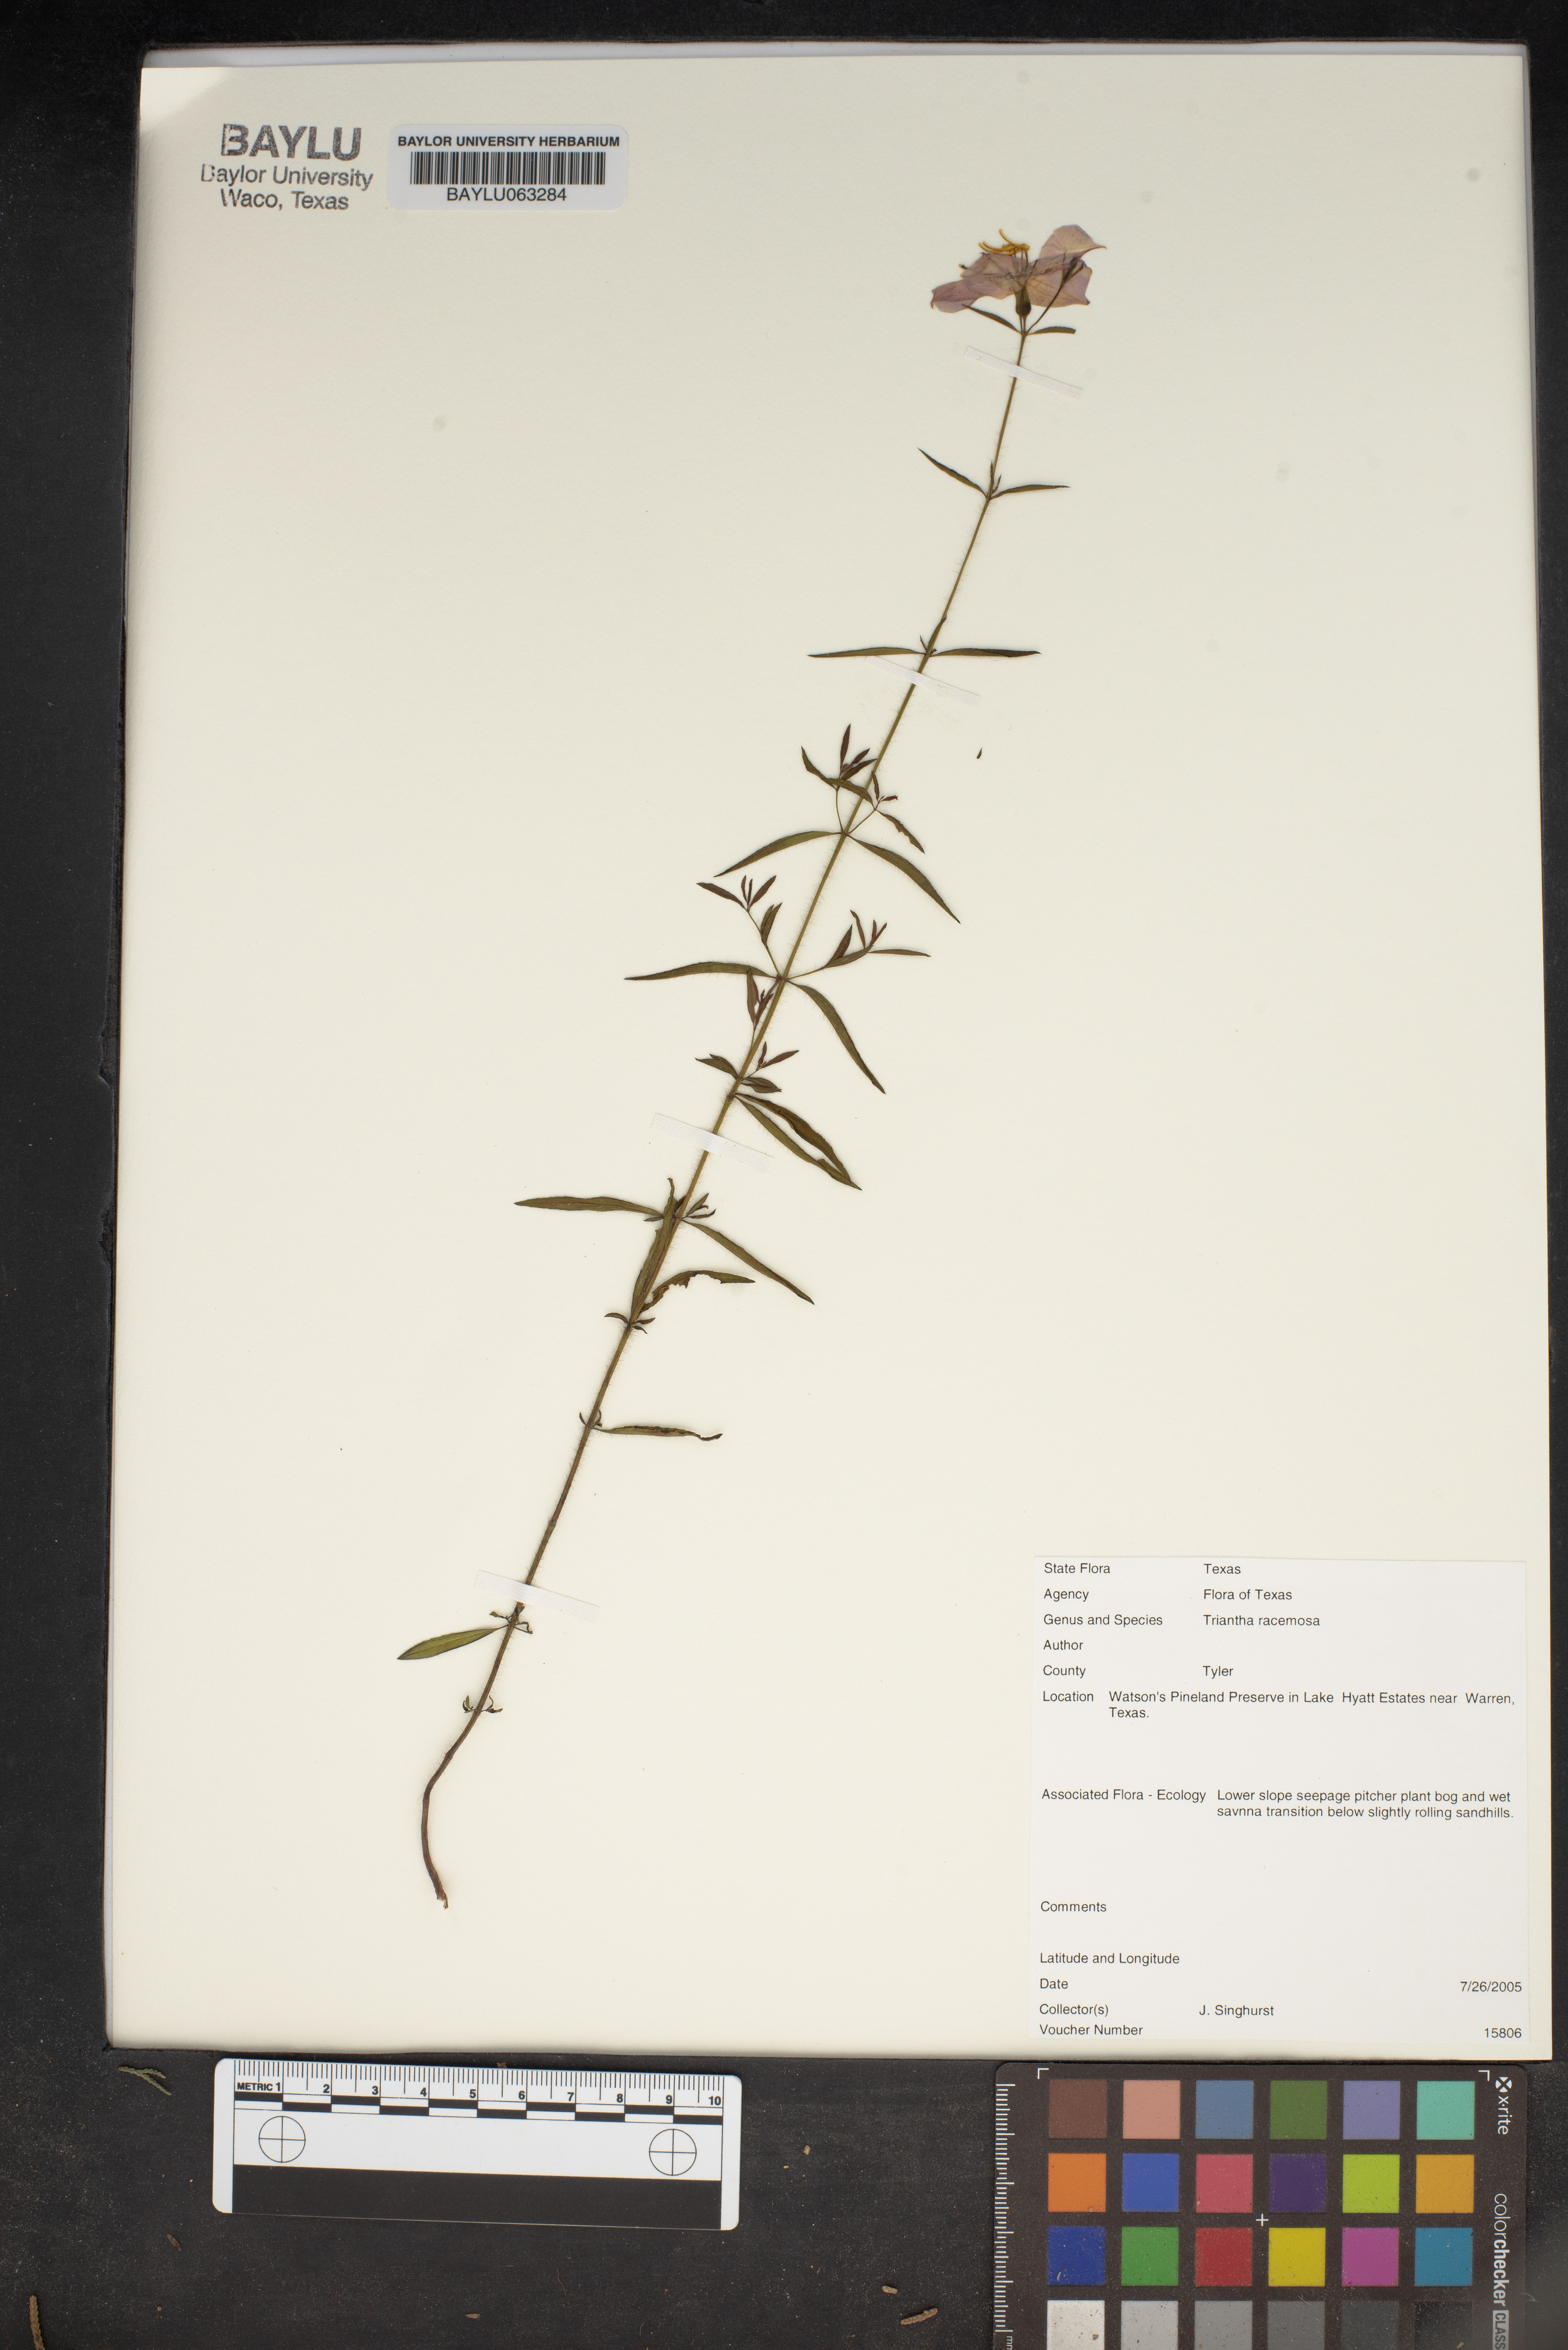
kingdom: Plantae
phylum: Tracheophyta
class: Liliopsida
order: Alismatales
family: Tofieldiaceae
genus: Triantha
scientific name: Triantha racemosa
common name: Coastal false asphodel
